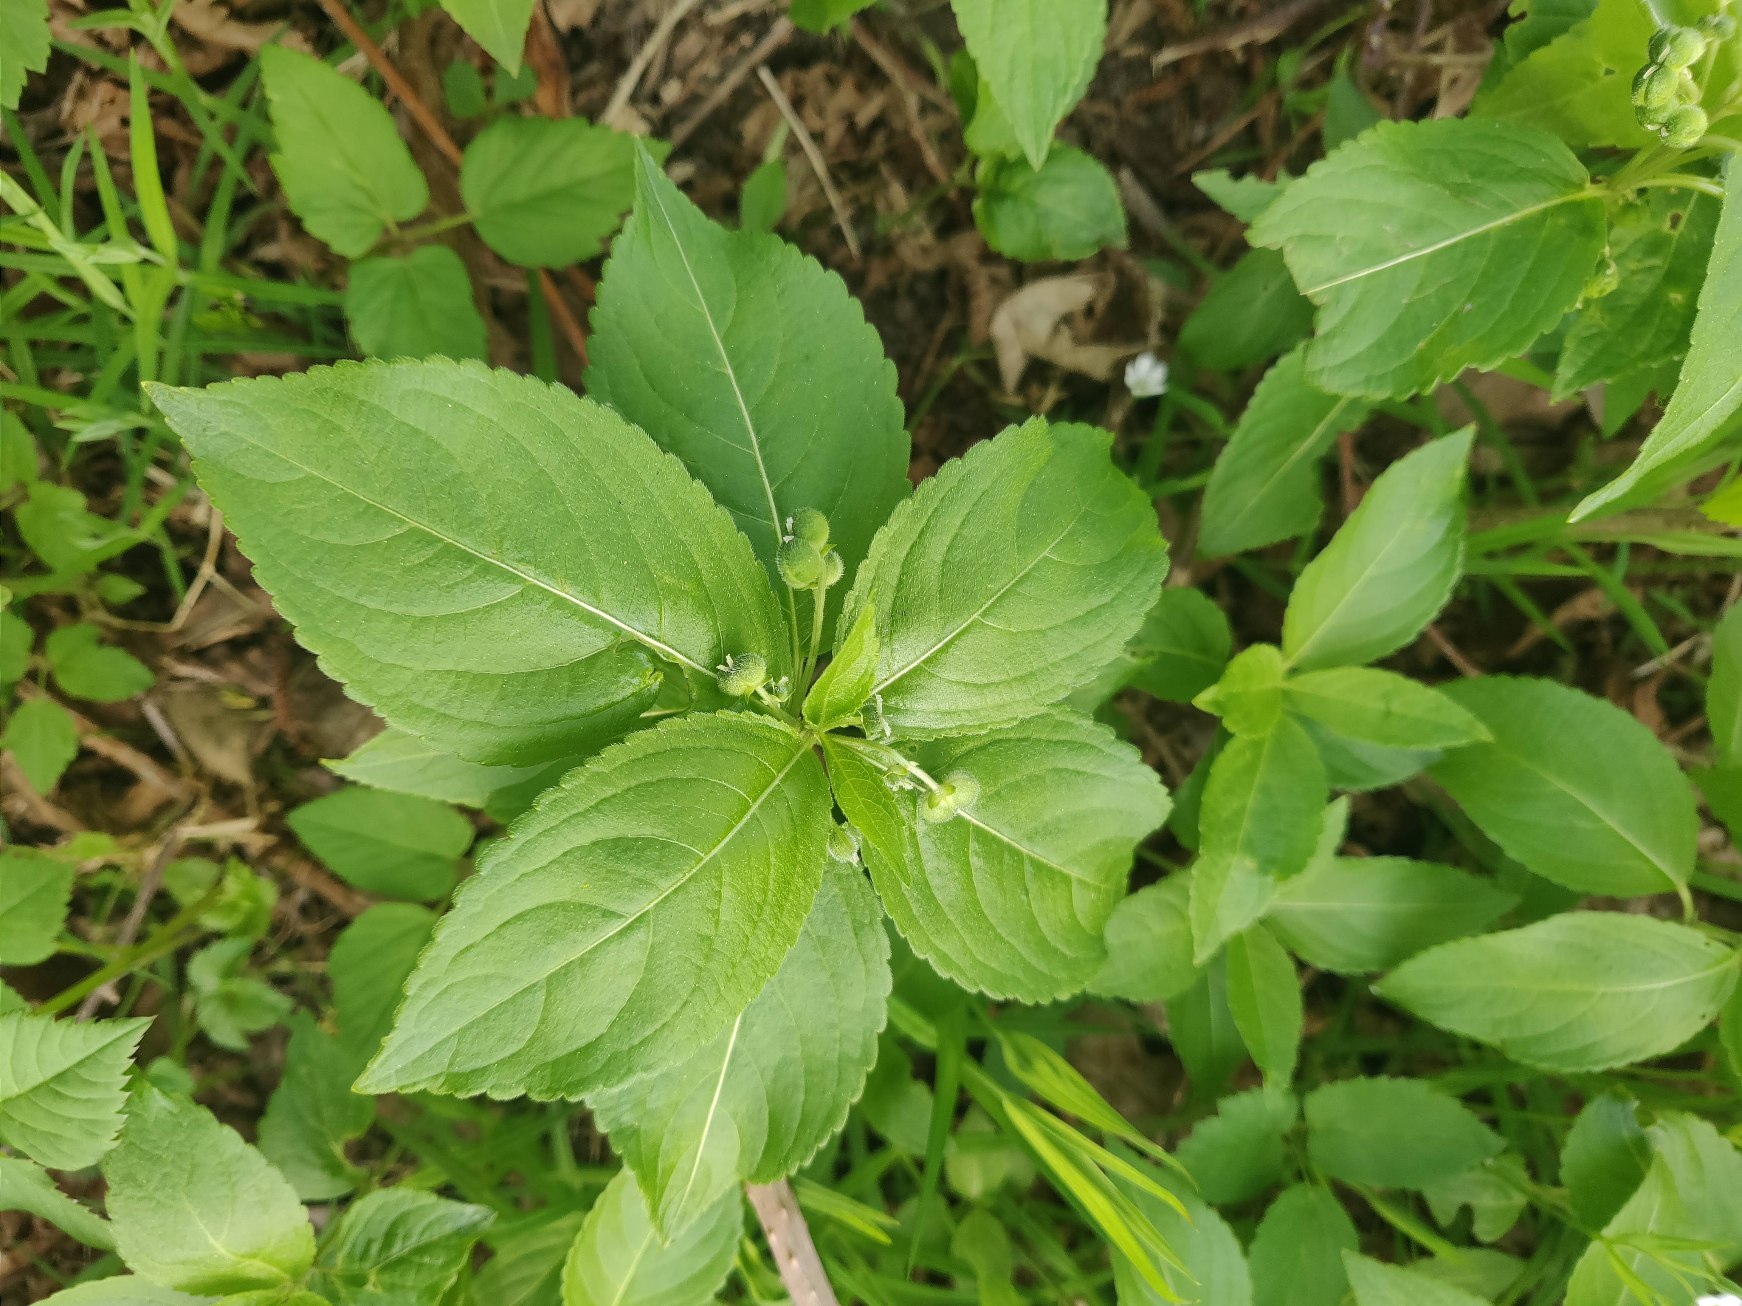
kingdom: Plantae
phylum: Tracheophyta
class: Magnoliopsida
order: Malpighiales
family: Euphorbiaceae
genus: Mercurialis
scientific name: Mercurialis perennis
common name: Almindelig bingelurt
